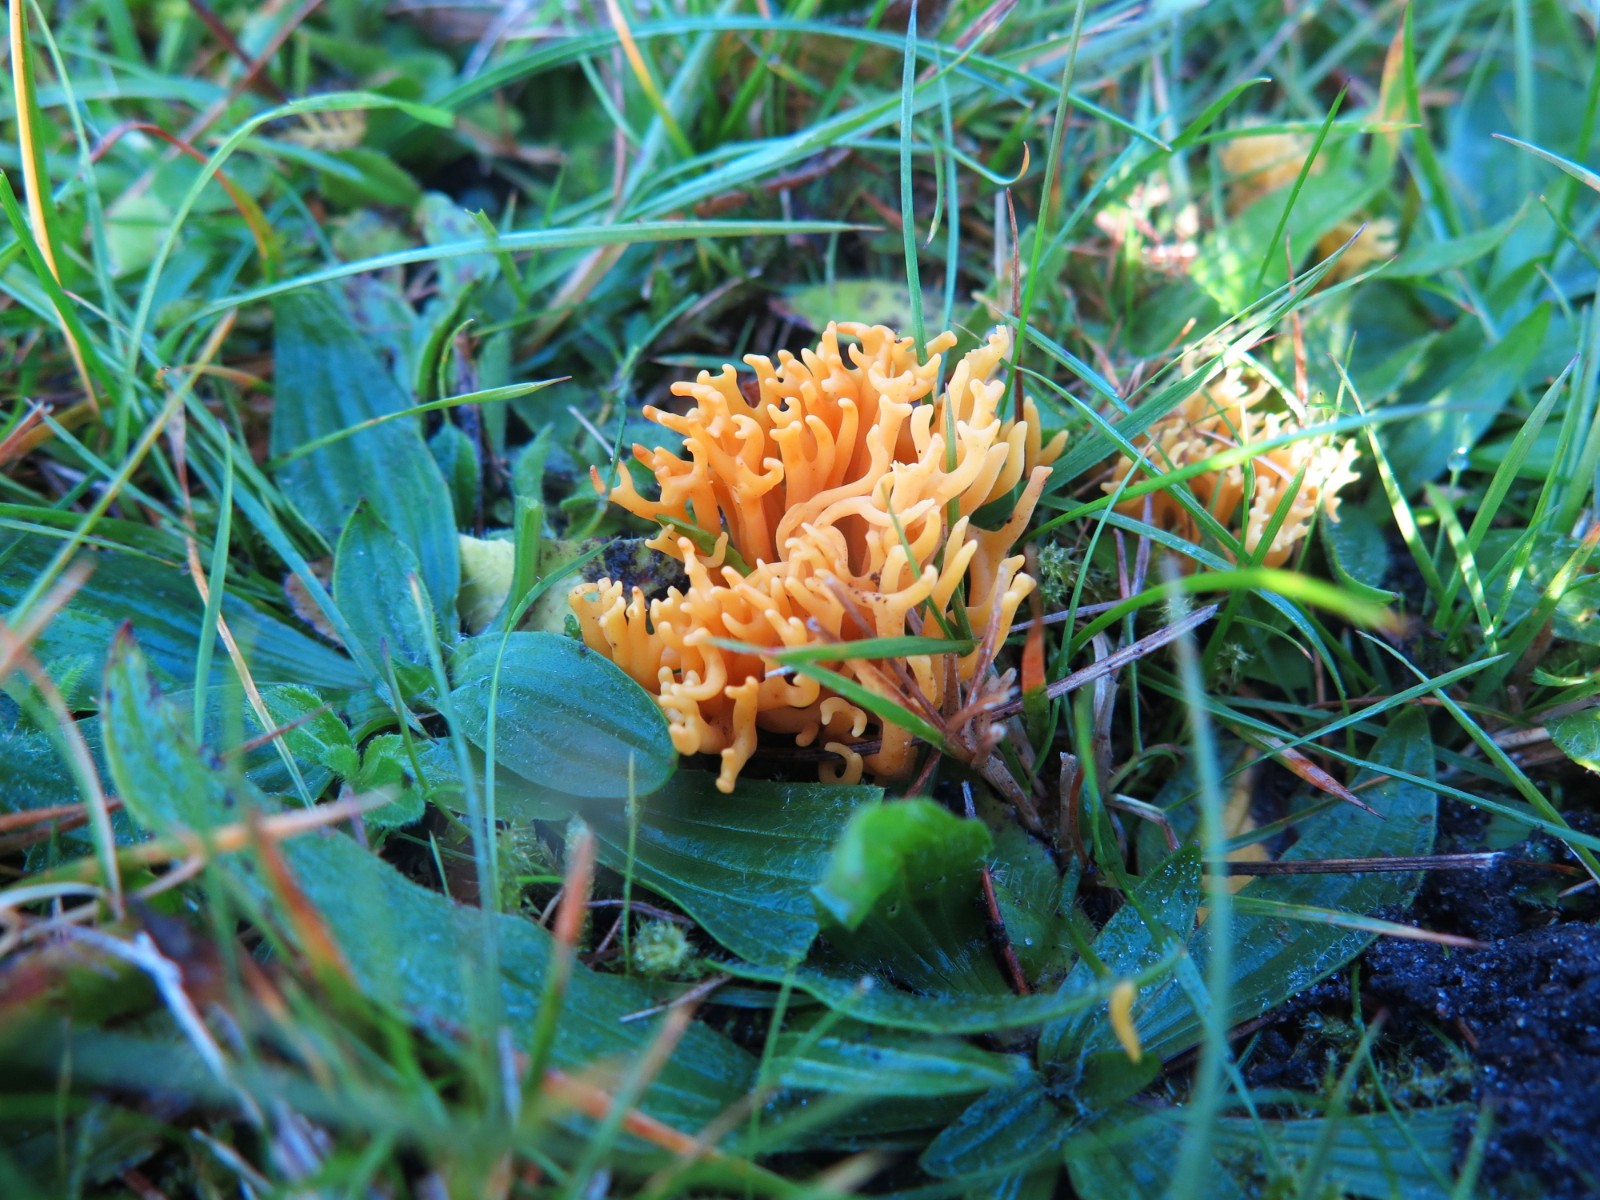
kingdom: Fungi
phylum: Basidiomycota
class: Agaricomycetes
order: Agaricales
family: Clavariaceae
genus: Clavulinopsis
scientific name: Clavulinopsis corniculata
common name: eng-køllesvamp
